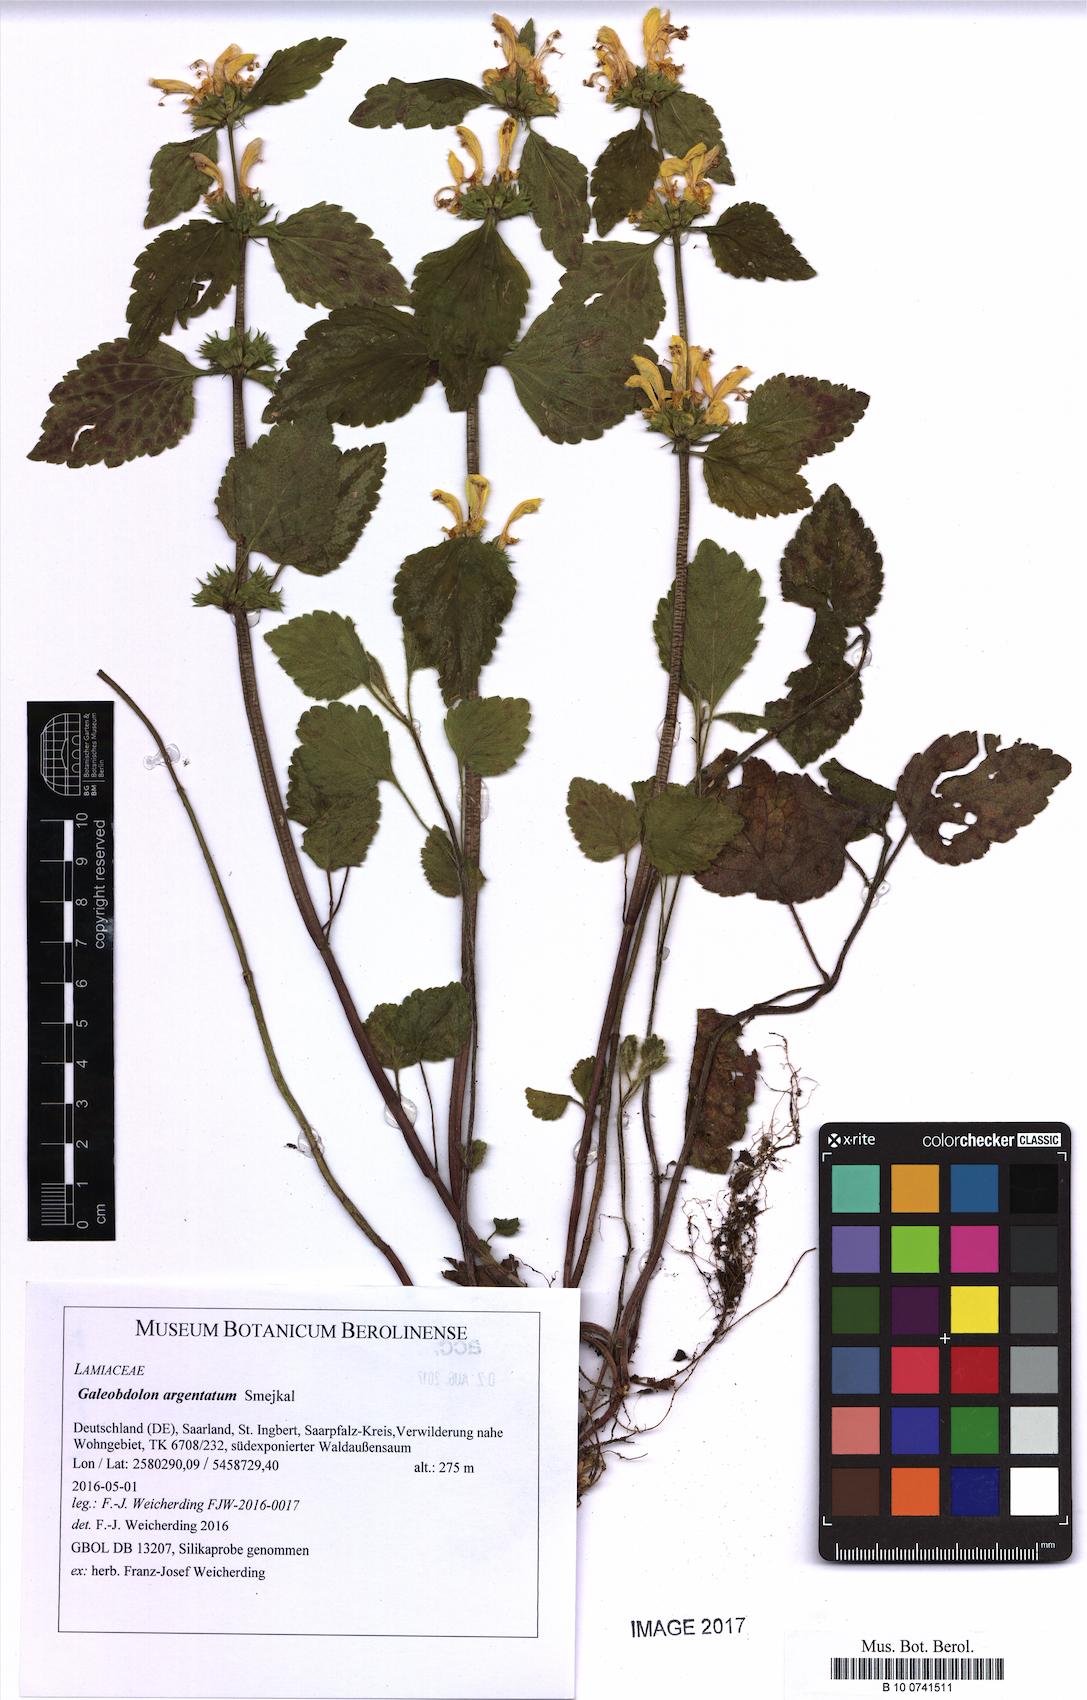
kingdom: Plantae
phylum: Tracheophyta
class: Magnoliopsida
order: Lamiales
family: Lamiaceae
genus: Lamium
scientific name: Lamium galeobdolon
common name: Yellow archangel
